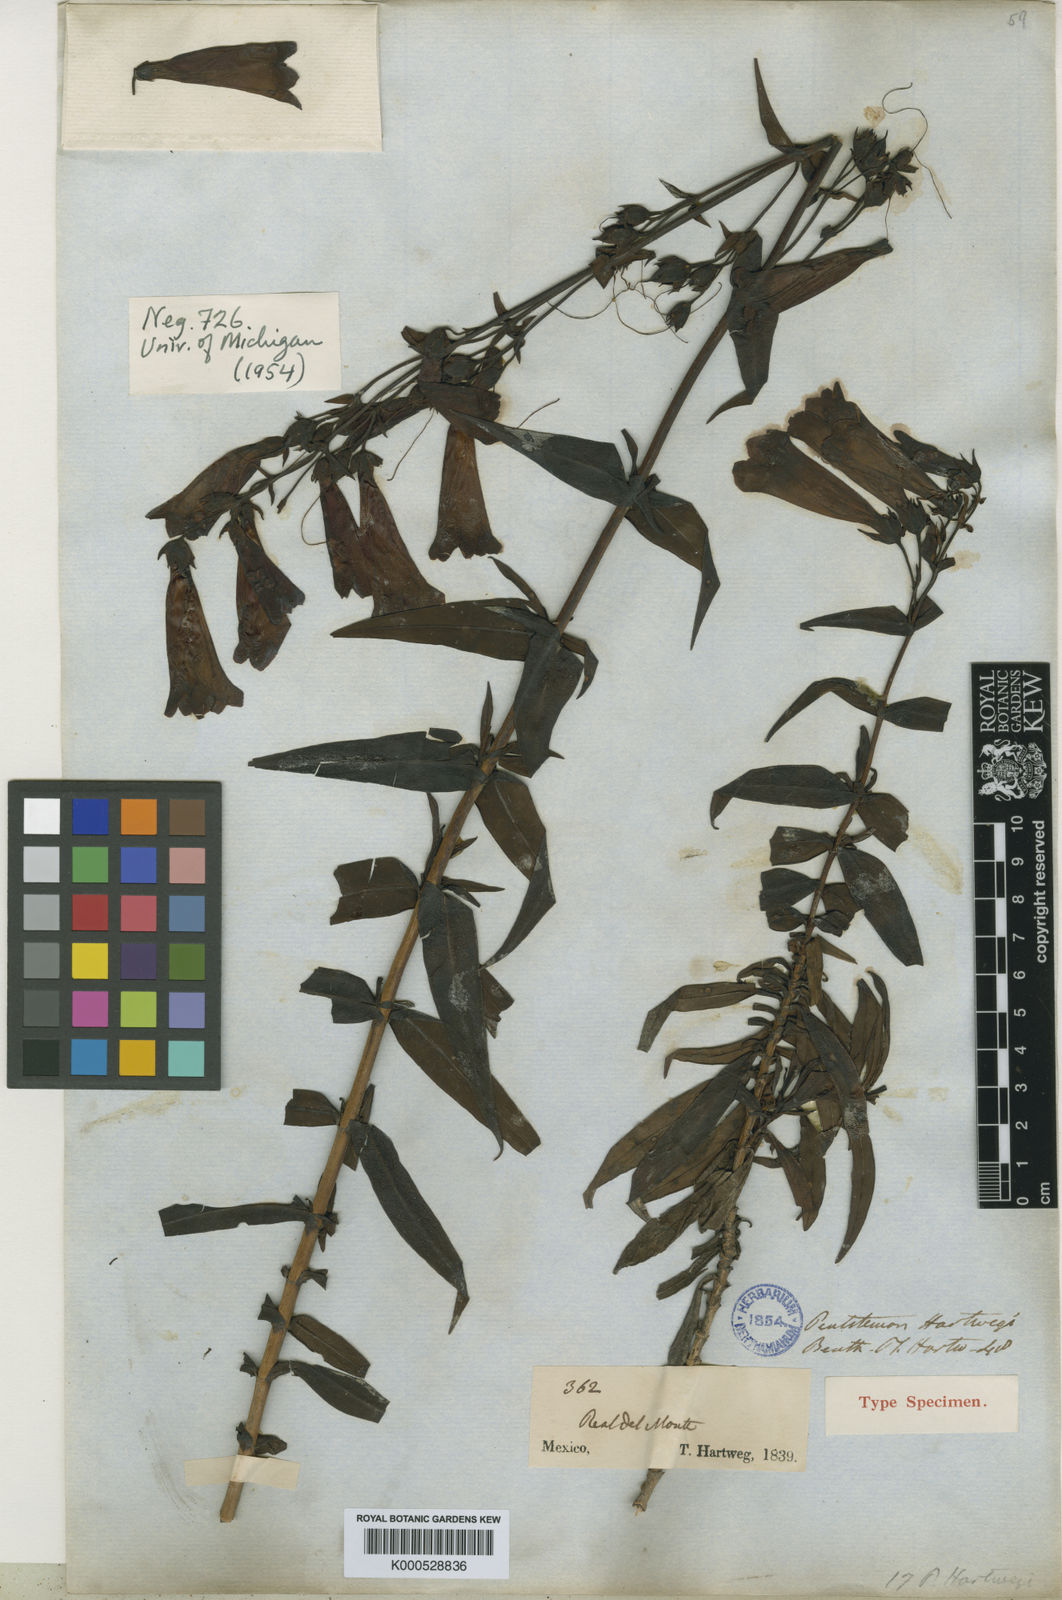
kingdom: Plantae
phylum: Tracheophyta
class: Magnoliopsida
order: Lamiales
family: Plantaginaceae
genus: Penstemon
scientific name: Penstemon hartwegii
